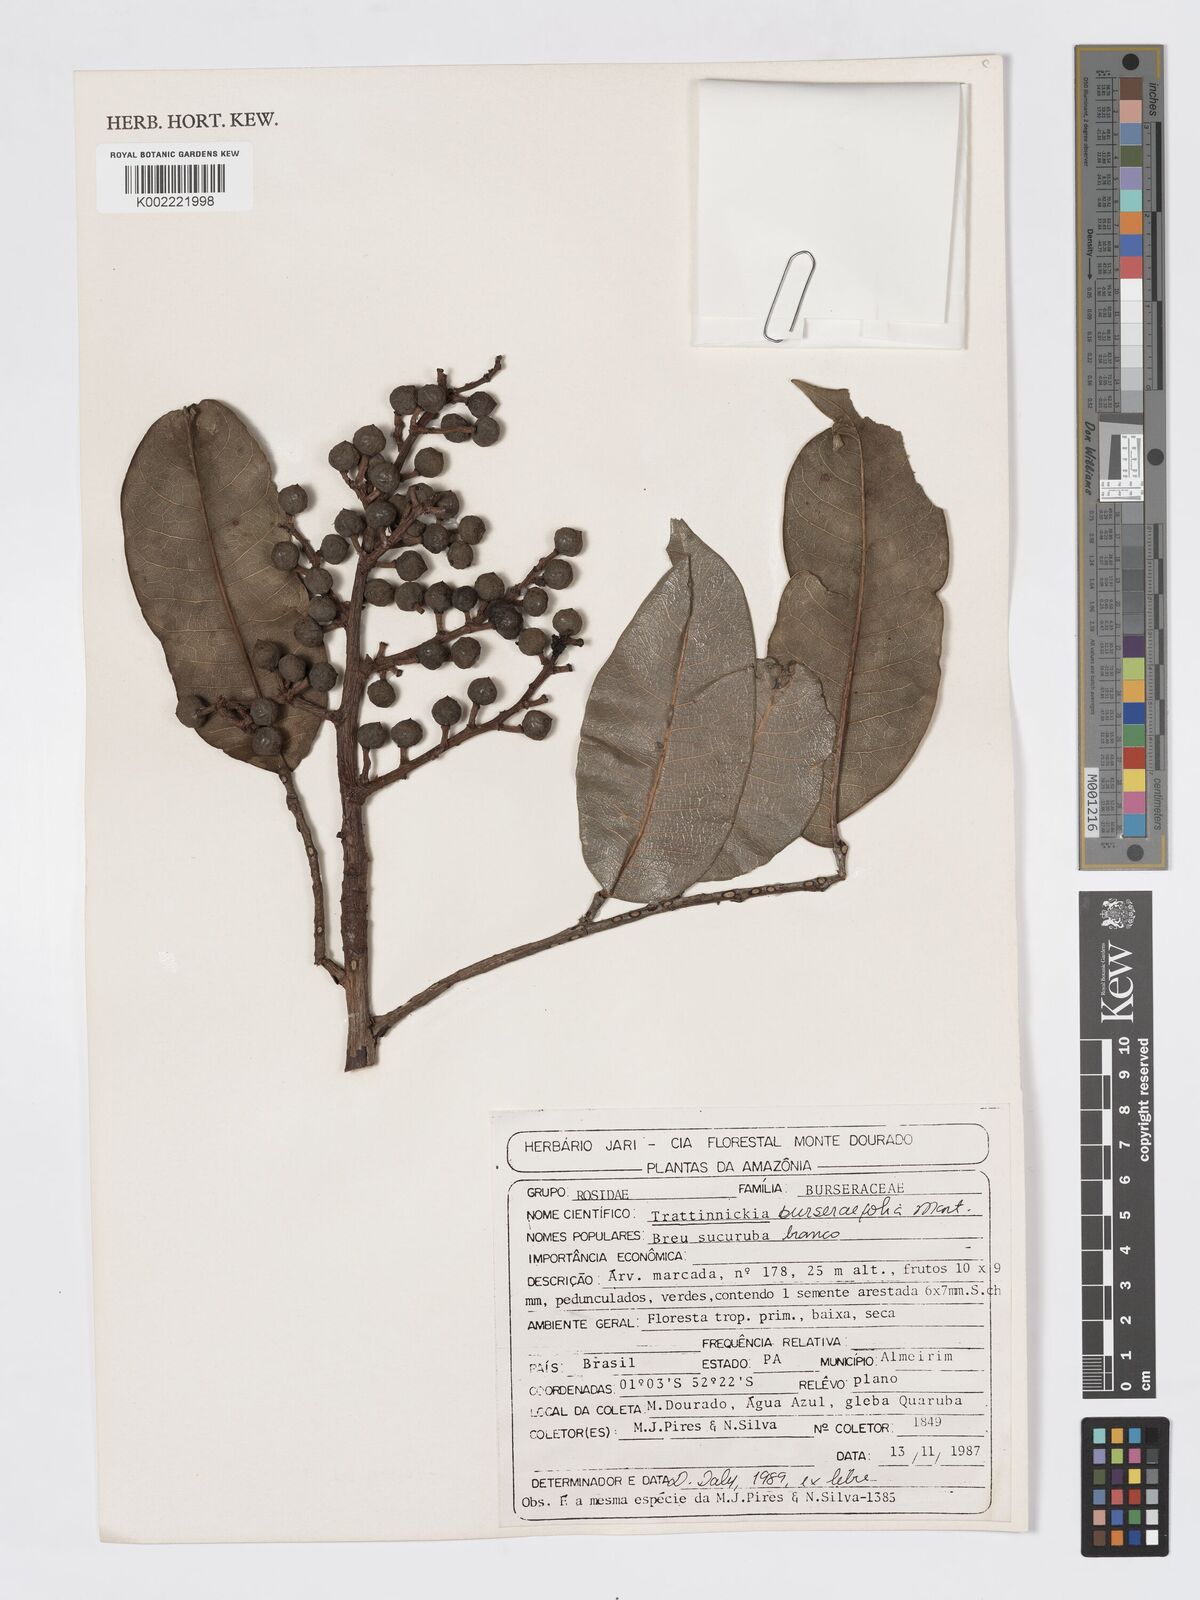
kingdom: Plantae
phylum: Tracheophyta
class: Magnoliopsida
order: Sapindales
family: Burseraceae
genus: Trattinnickia
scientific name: Trattinnickia burserifolia
